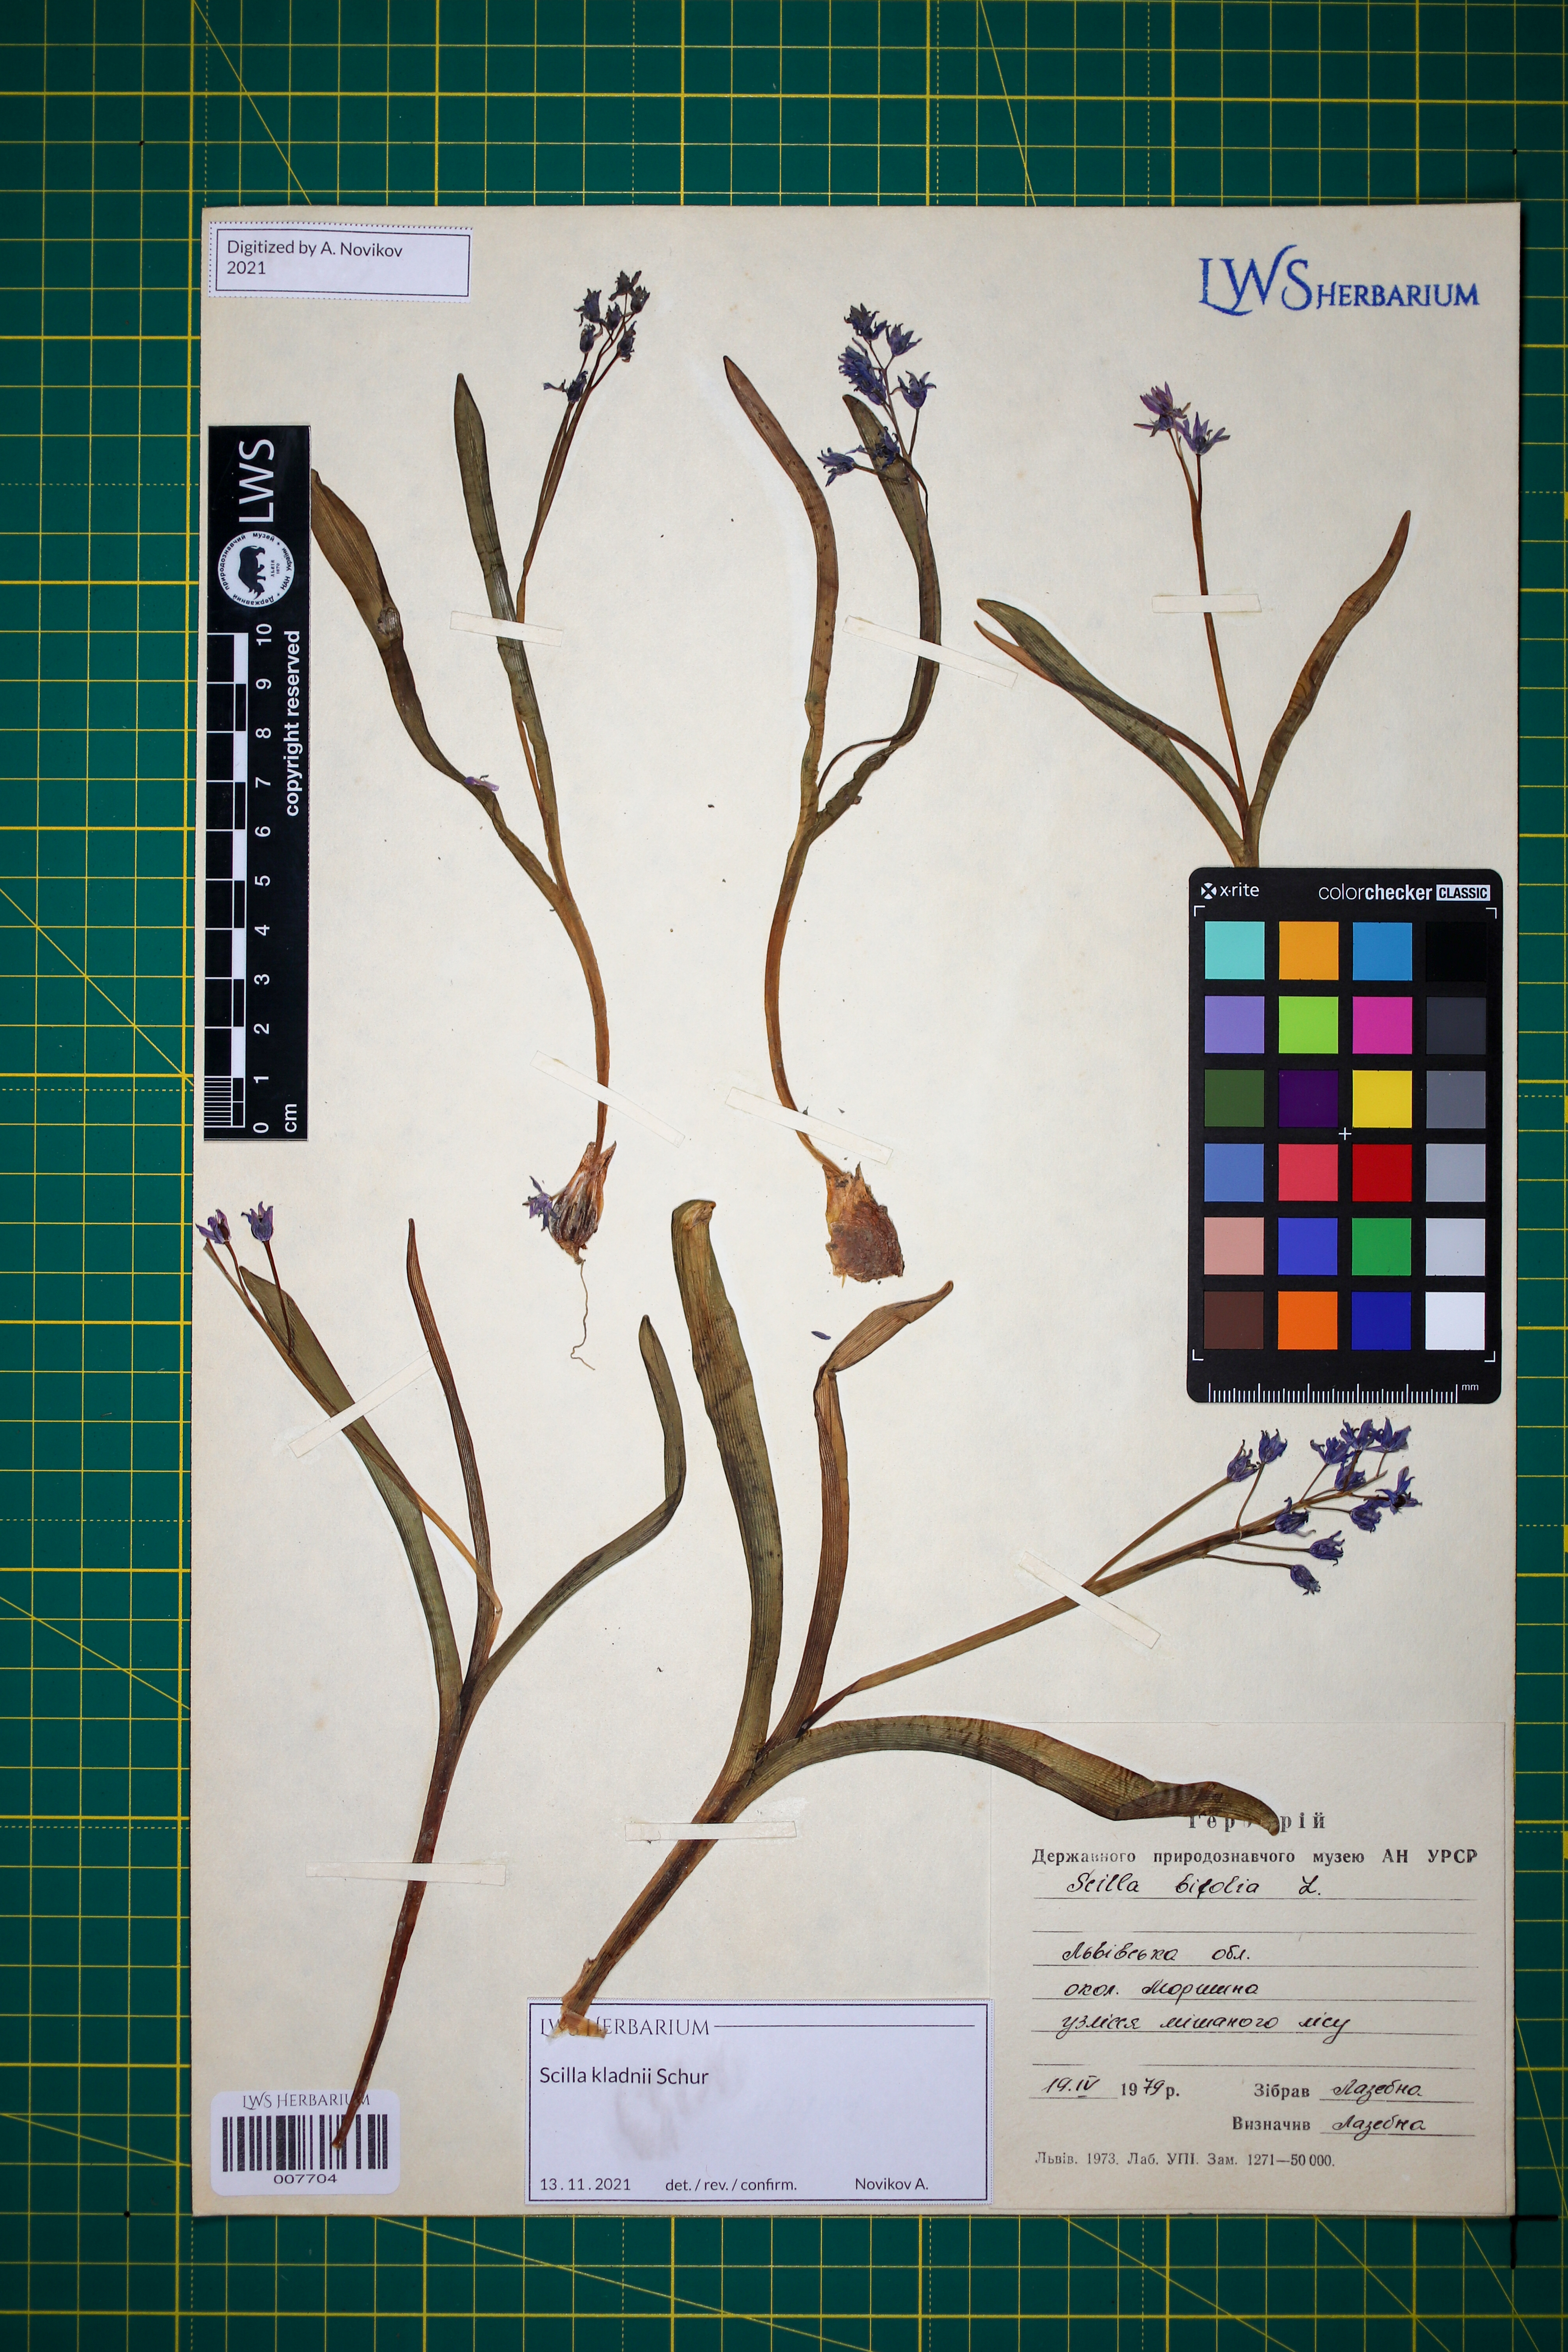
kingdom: Plantae
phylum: Tracheophyta
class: Liliopsida
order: Asparagales
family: Asparagaceae
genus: Scilla
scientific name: Scilla kladnii
